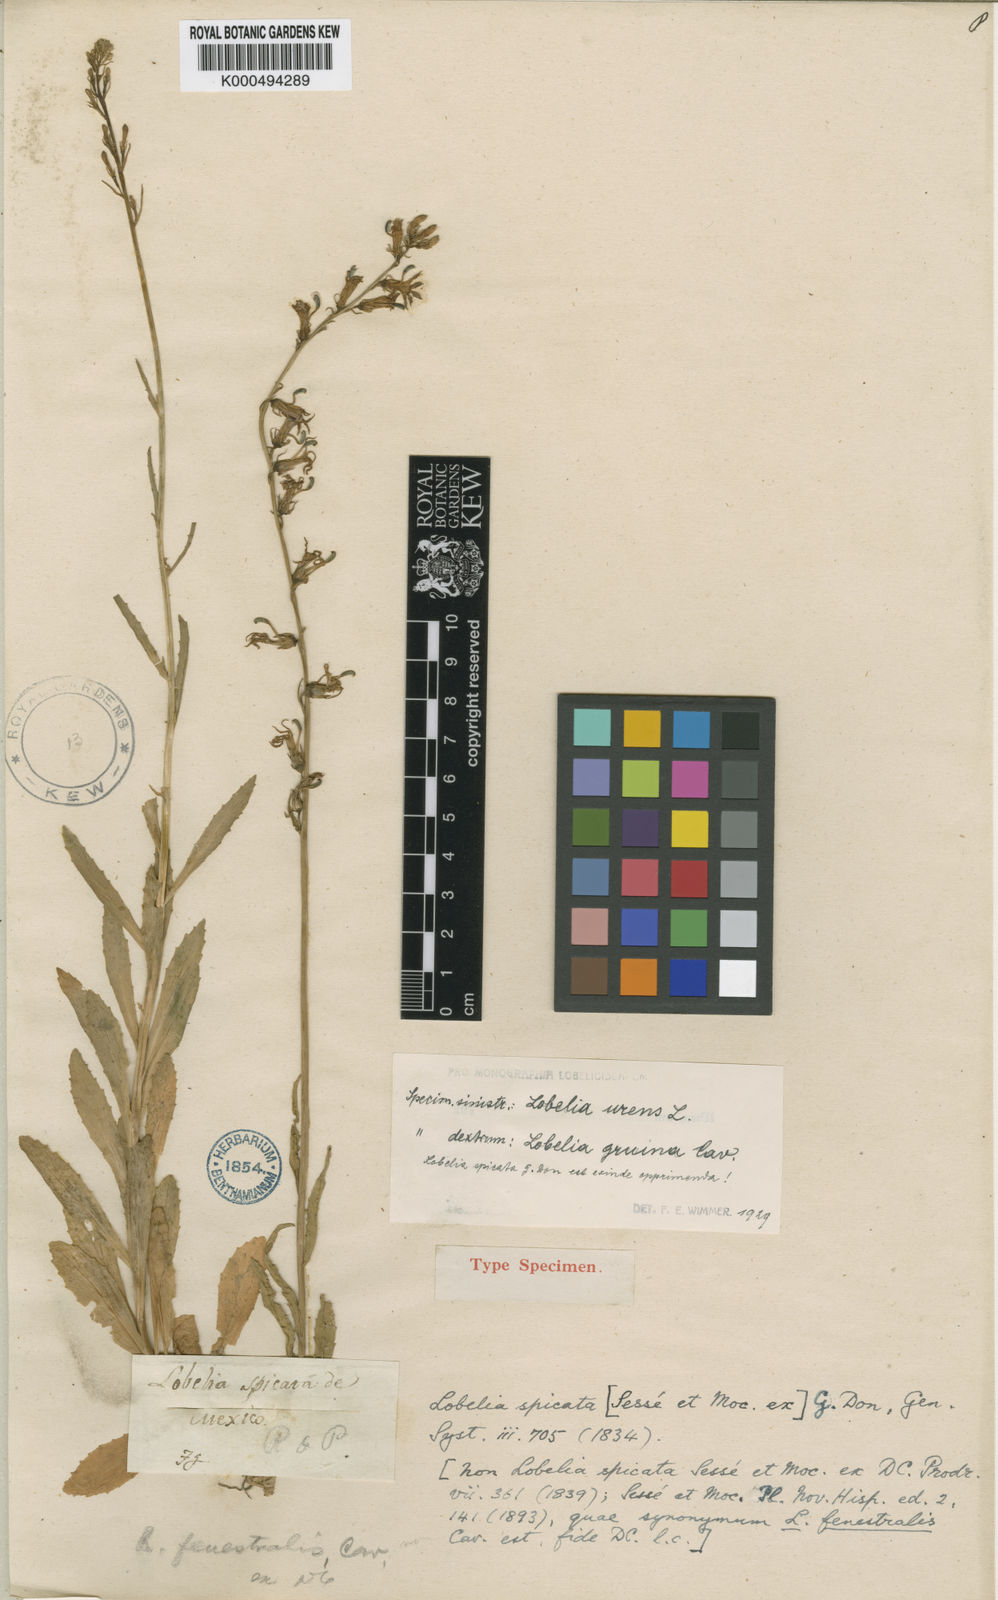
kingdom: Plantae
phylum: Tracheophyta
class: Magnoliopsida
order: Asterales
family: Campanulaceae
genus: Lobelia
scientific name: Lobelia
